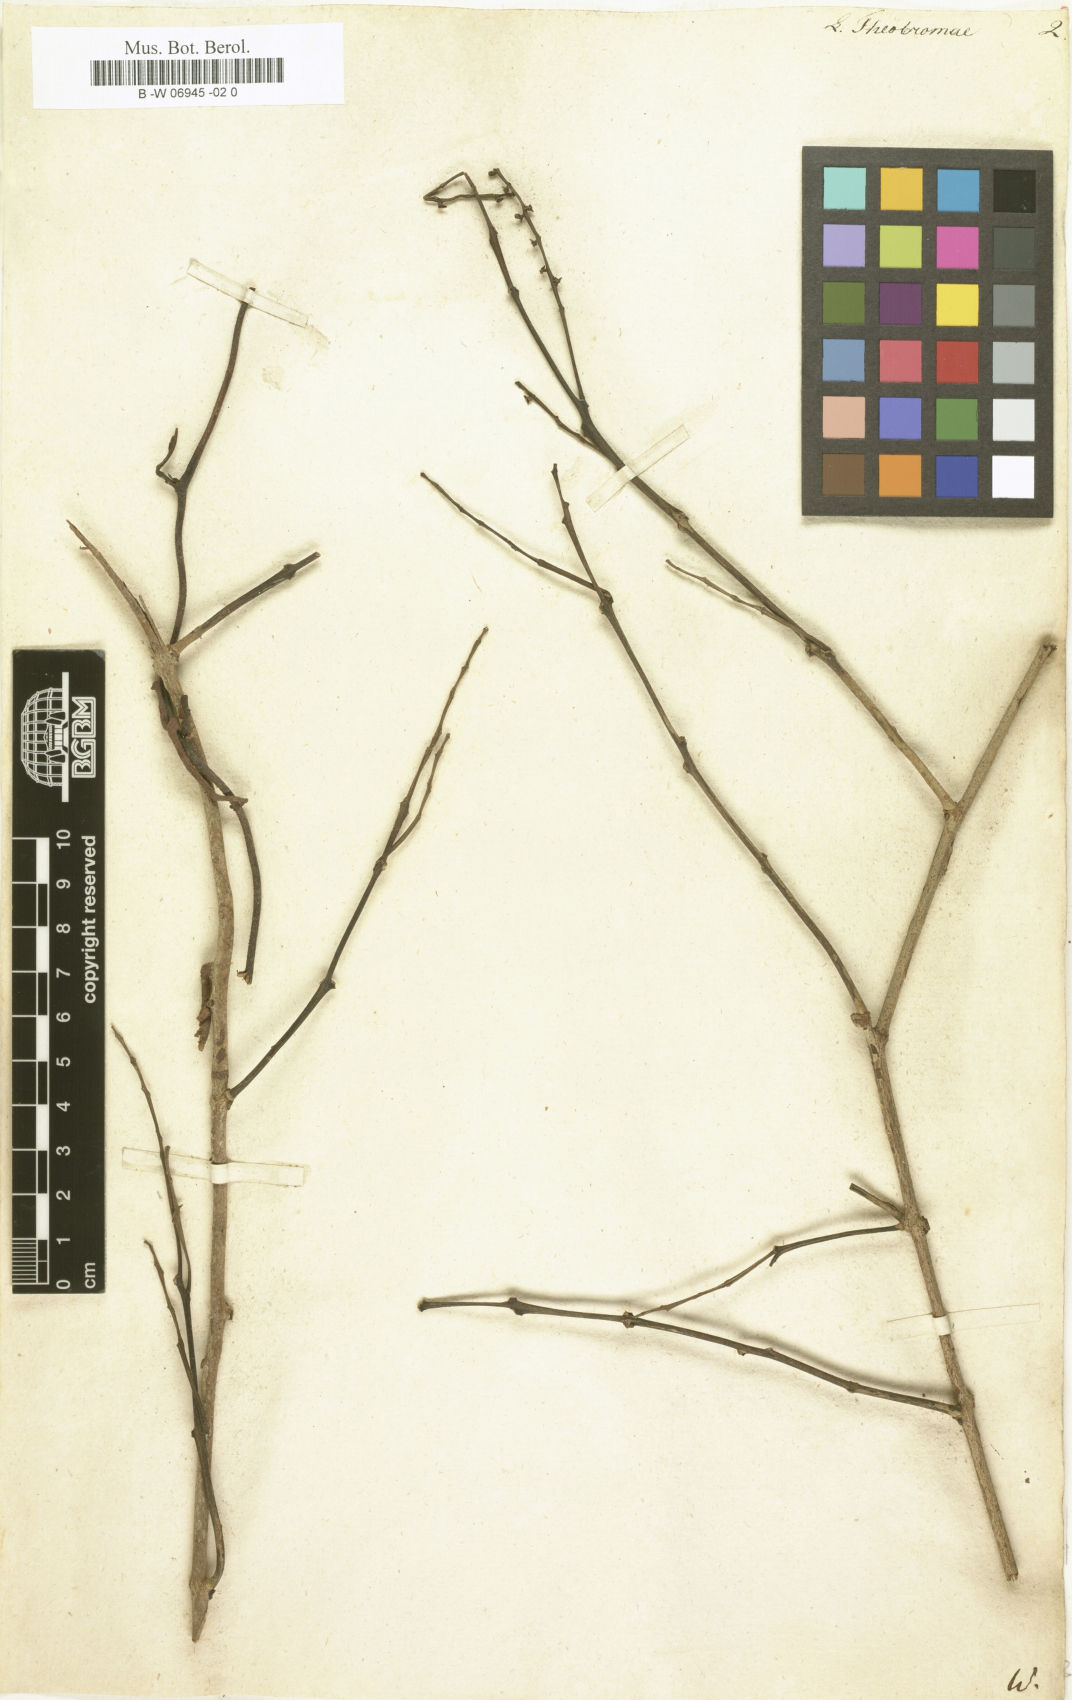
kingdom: Plantae
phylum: Tracheophyta
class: Magnoliopsida
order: Santalales
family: Loranthaceae
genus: Passovia
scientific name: Passovia pedunculata
